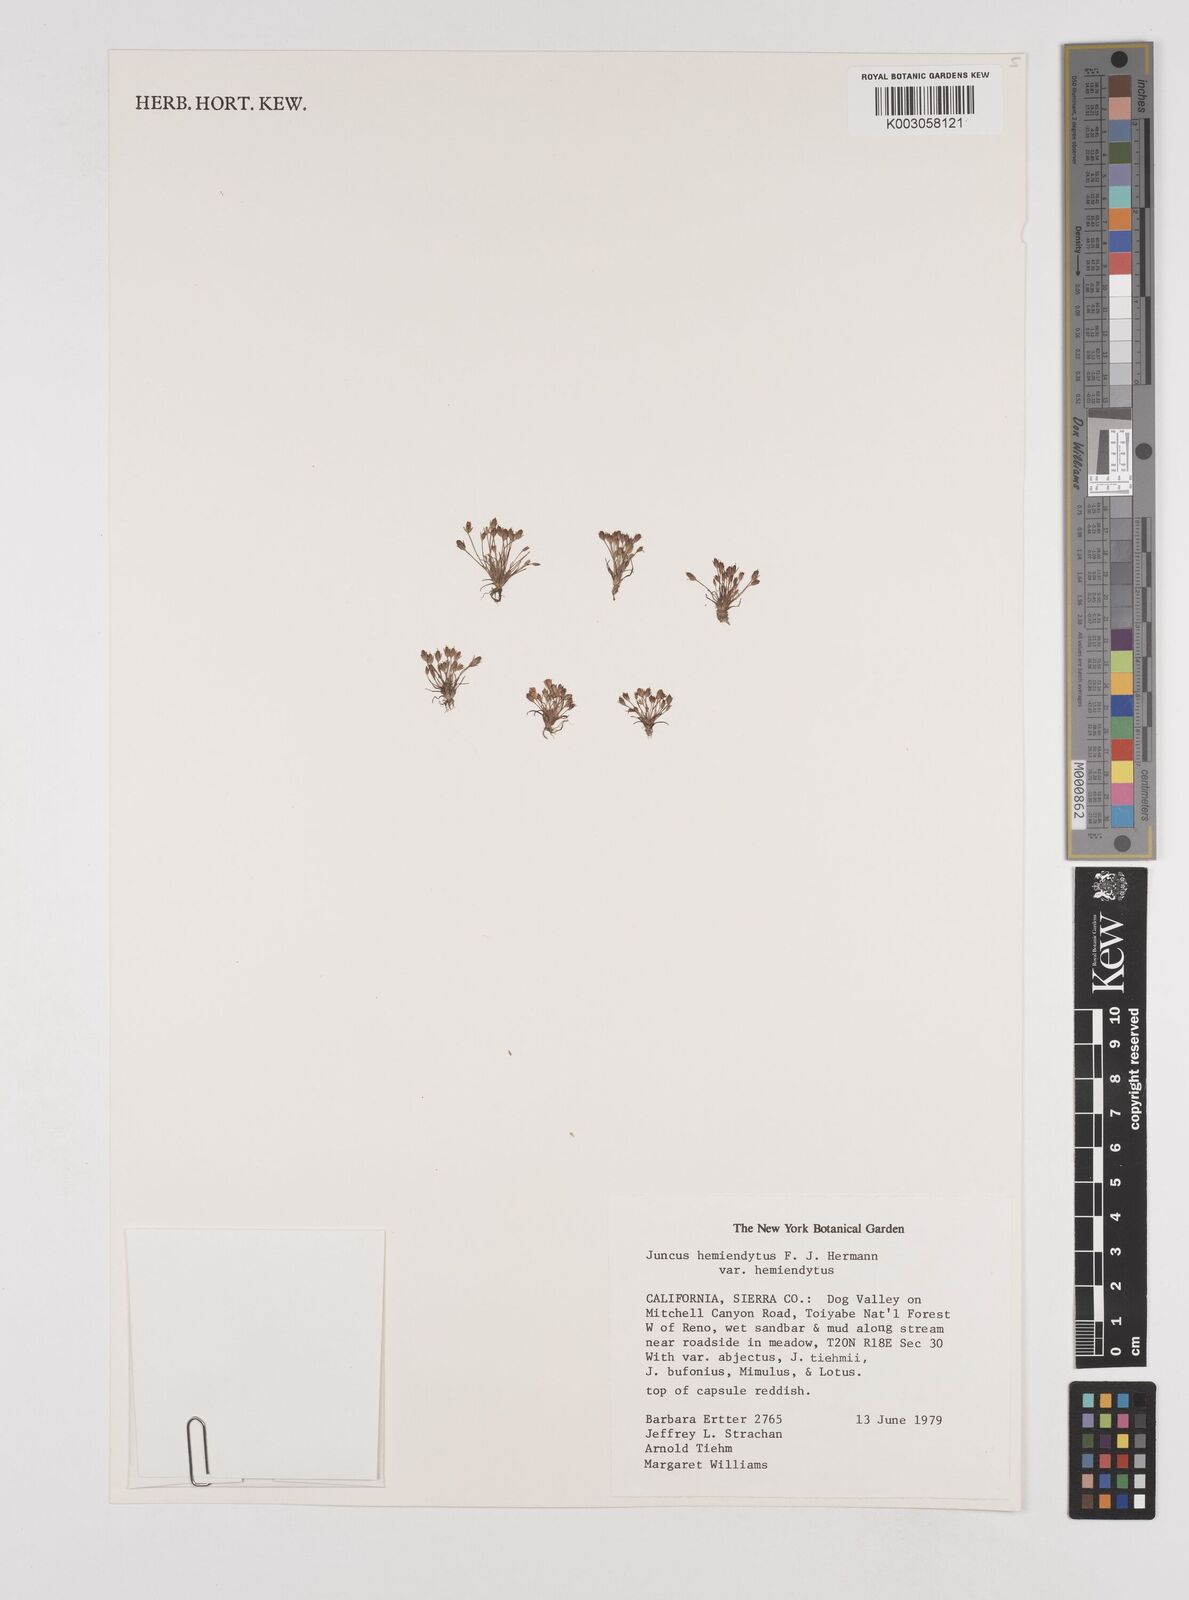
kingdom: Plantae
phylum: Tracheophyta
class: Liliopsida
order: Poales
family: Juncaceae
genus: Juncus
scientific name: Juncus hemiendytus
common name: Hermann's dwarf rush
